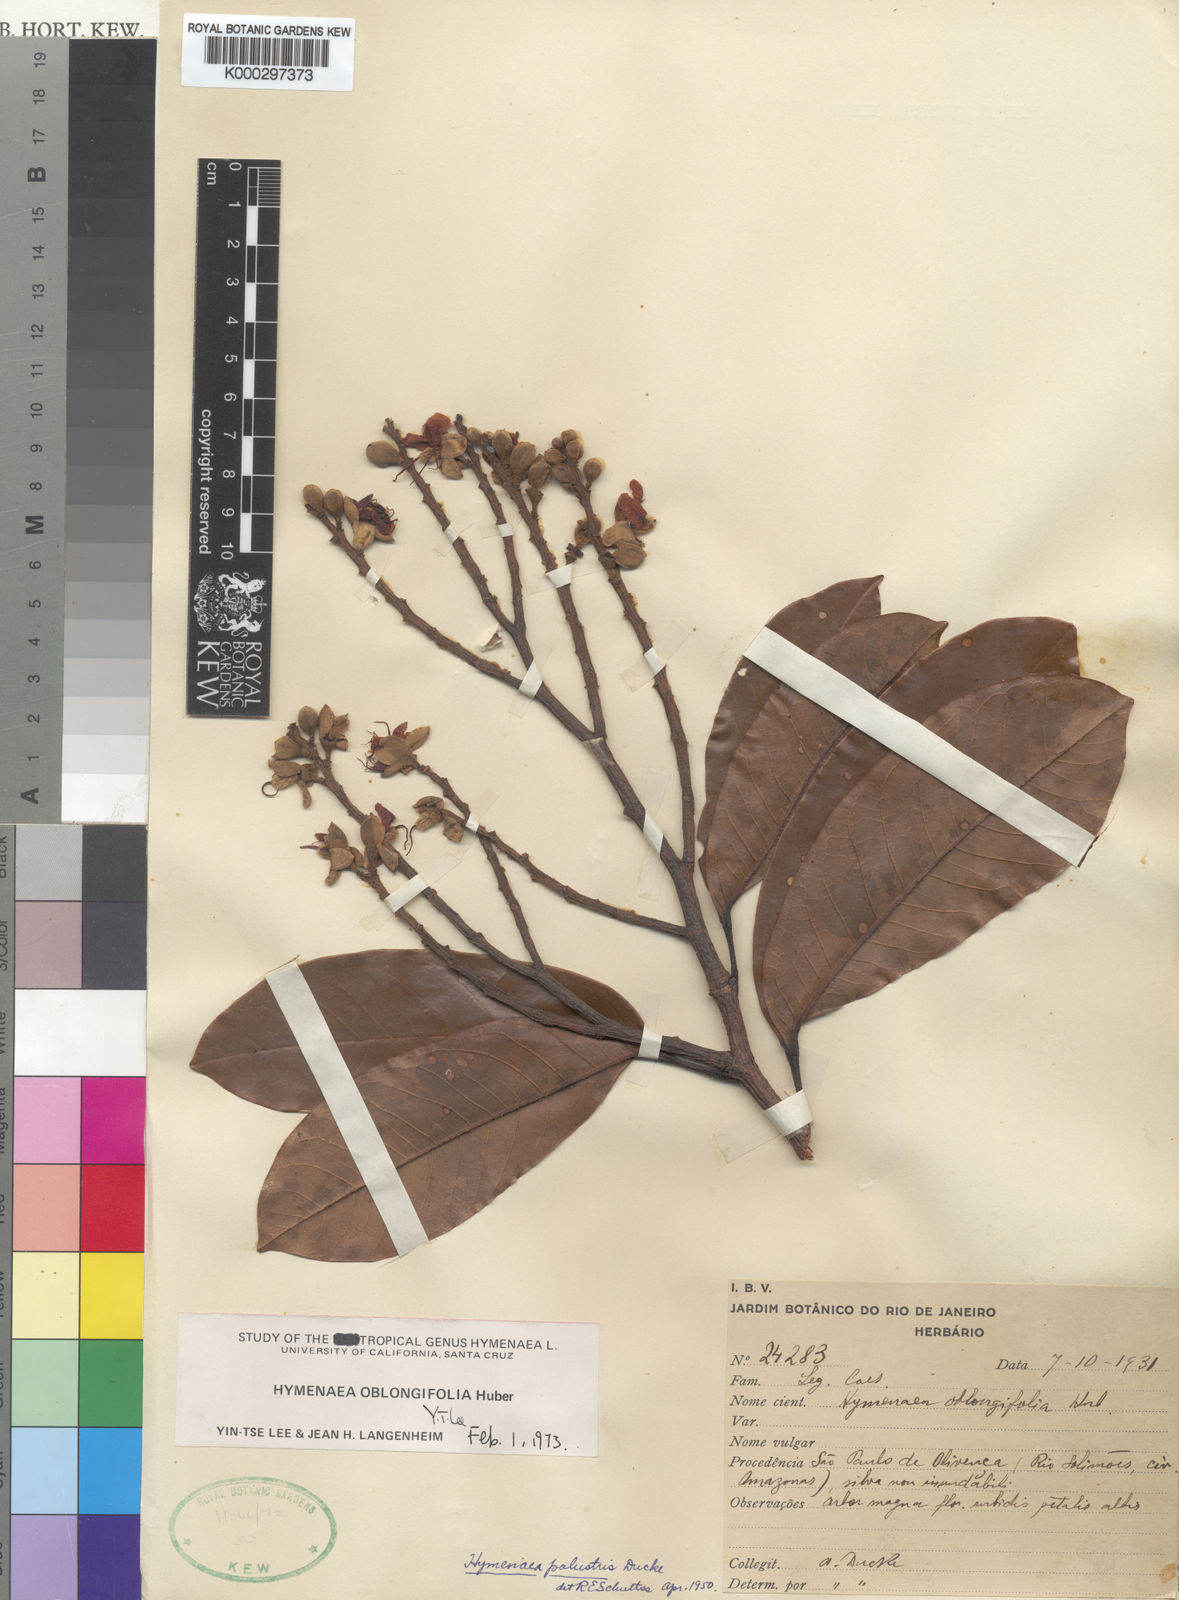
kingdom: Plantae
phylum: Tracheophyta
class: Magnoliopsida
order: Fabales
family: Fabaceae
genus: Hymenaea
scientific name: Hymenaea oblongifolia
